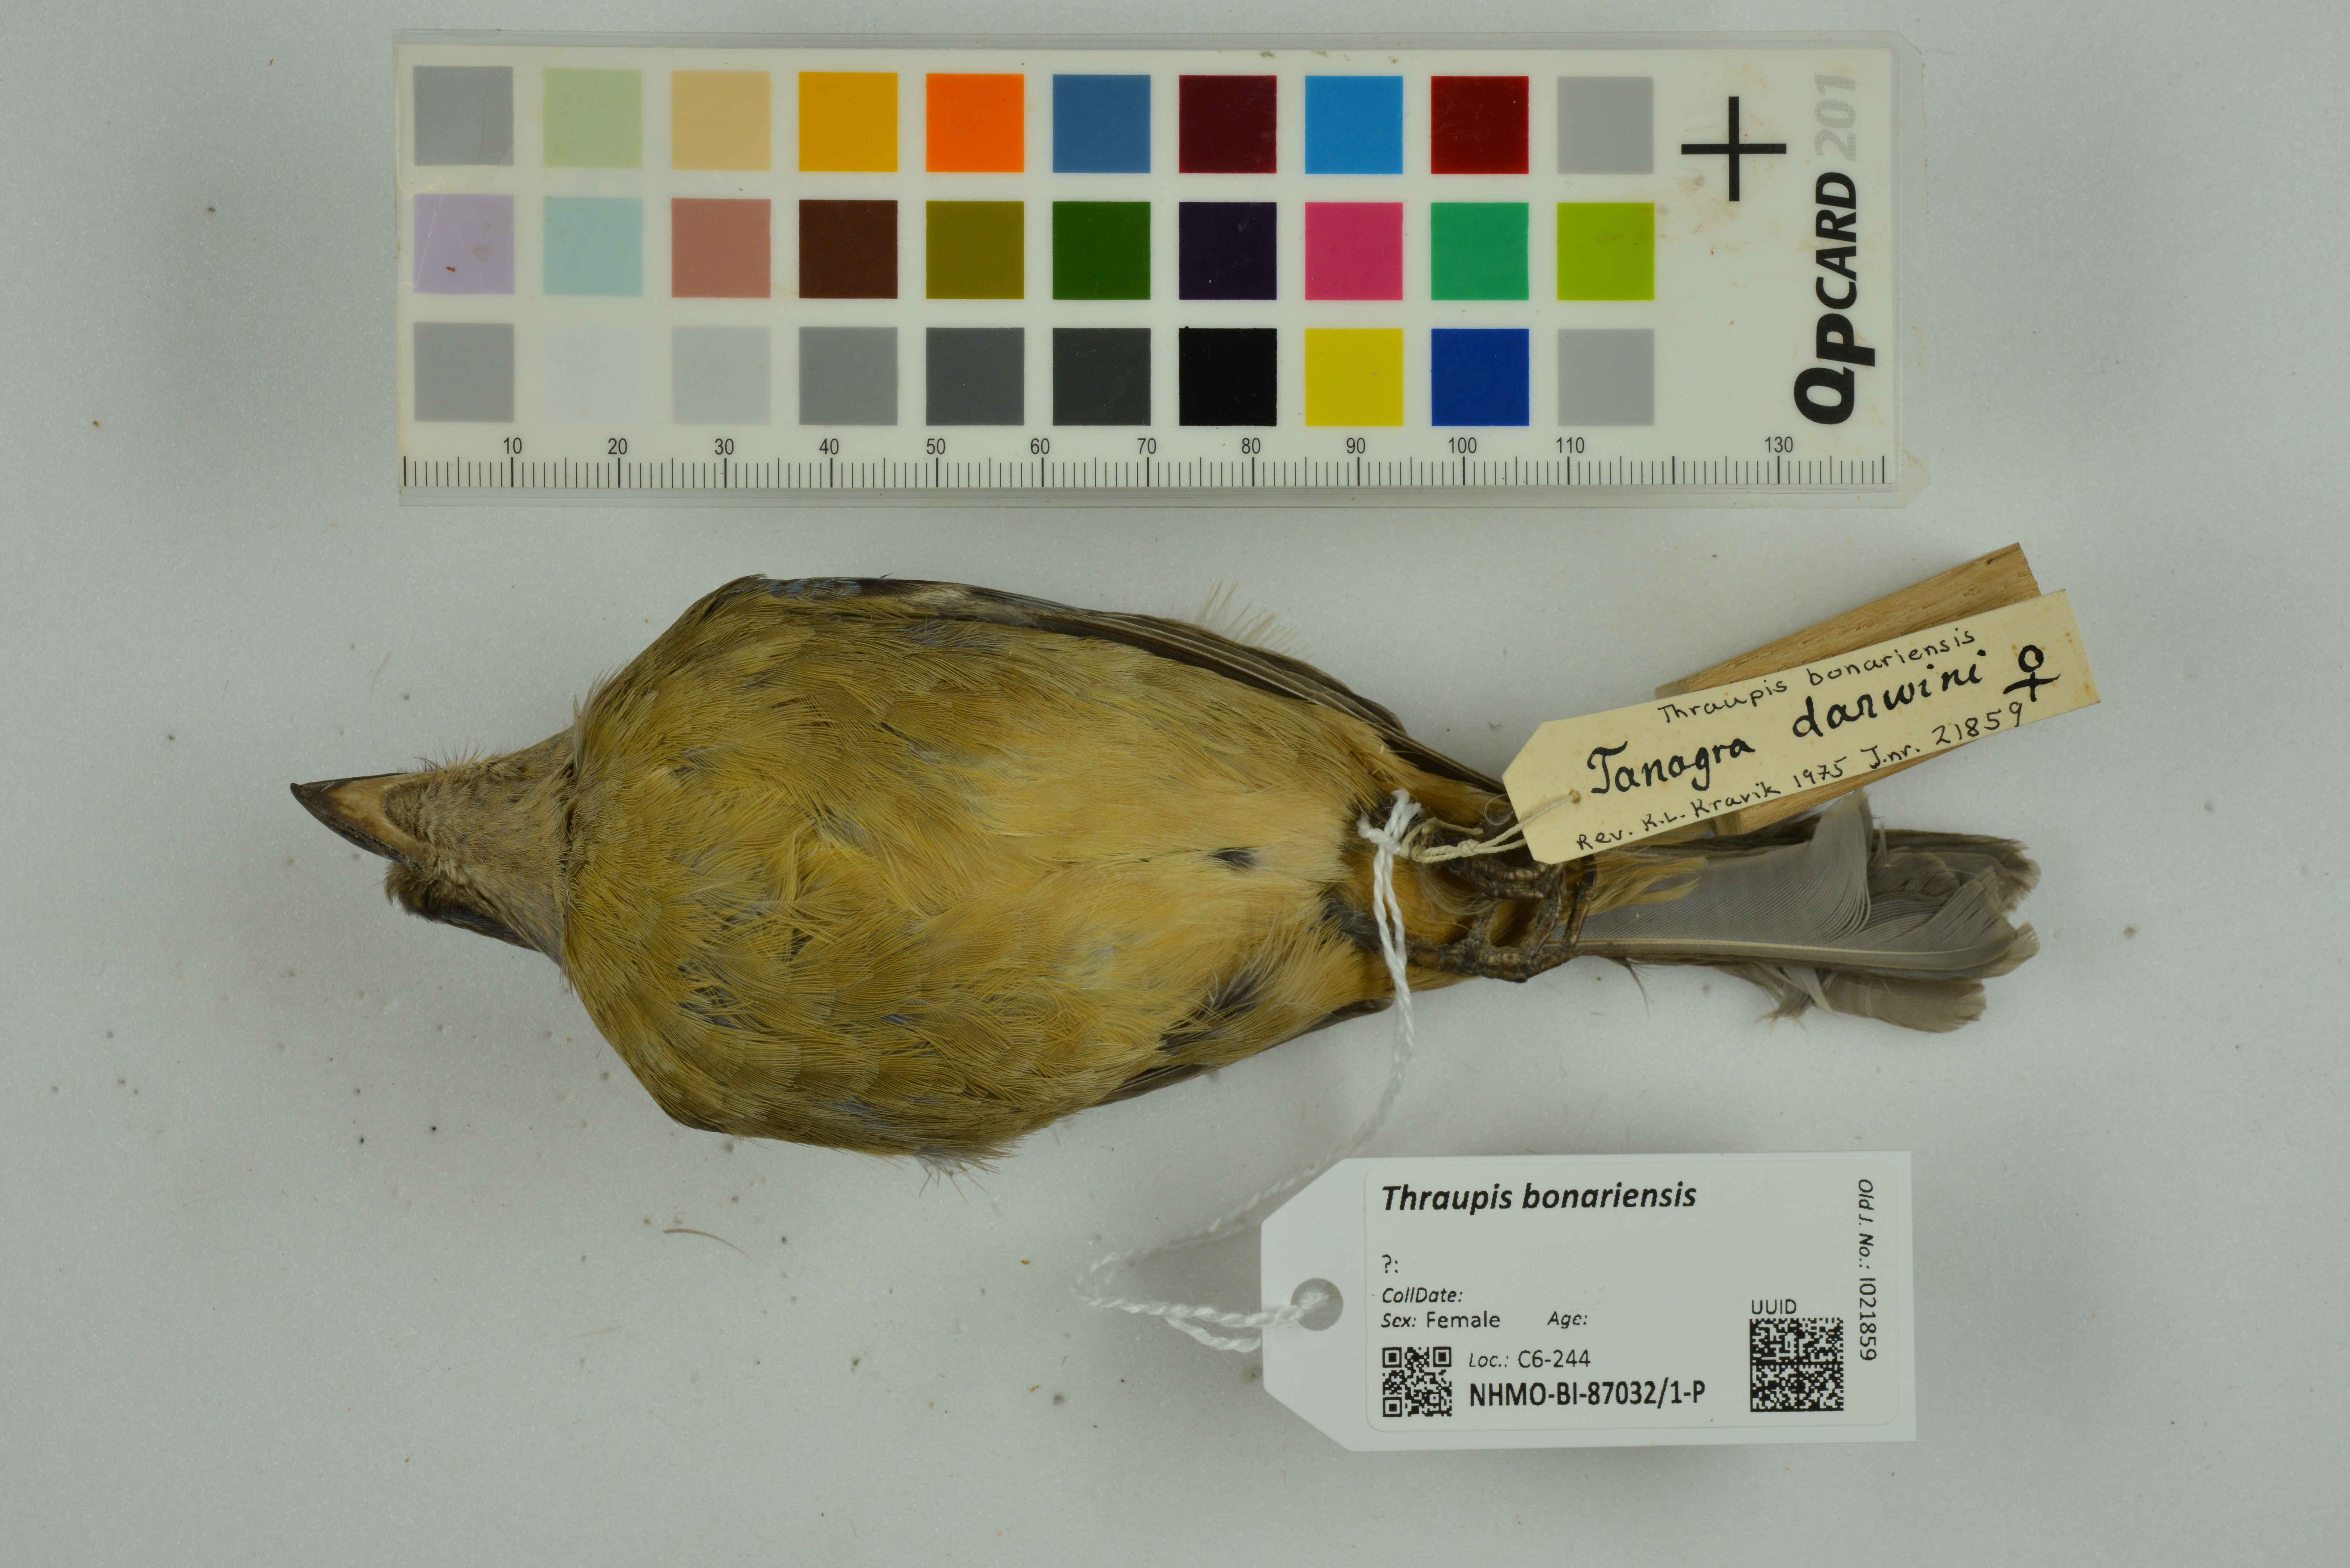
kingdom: Animalia
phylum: Chordata
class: Aves
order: Passeriformes
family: Thraupidae
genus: Rauenia
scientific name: Rauenia bonariensis
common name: Blue-and-yellow tanager
